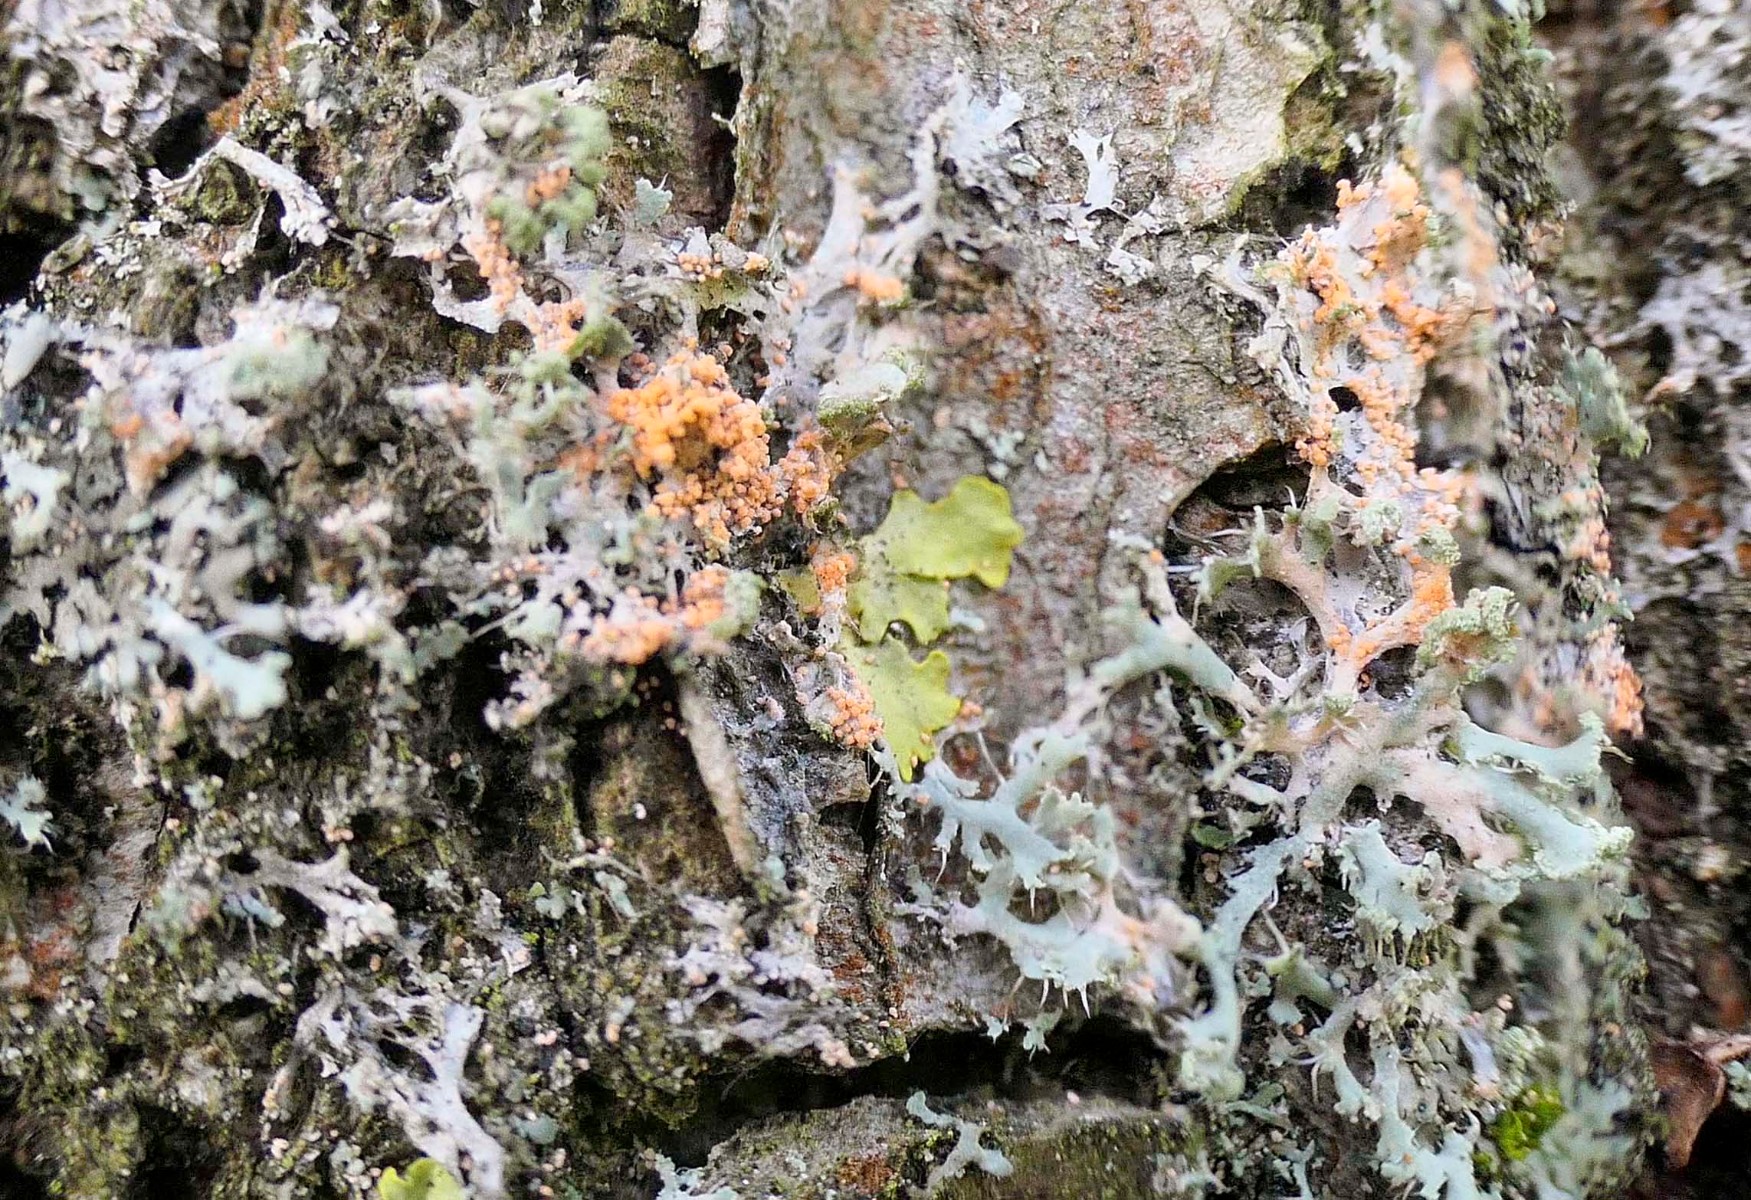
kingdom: Fungi
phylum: Basidiomycota
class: Agaricomycetes
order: Corticiales
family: Corticiaceae
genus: Erythricium
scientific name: Erythricium aurantiacum
